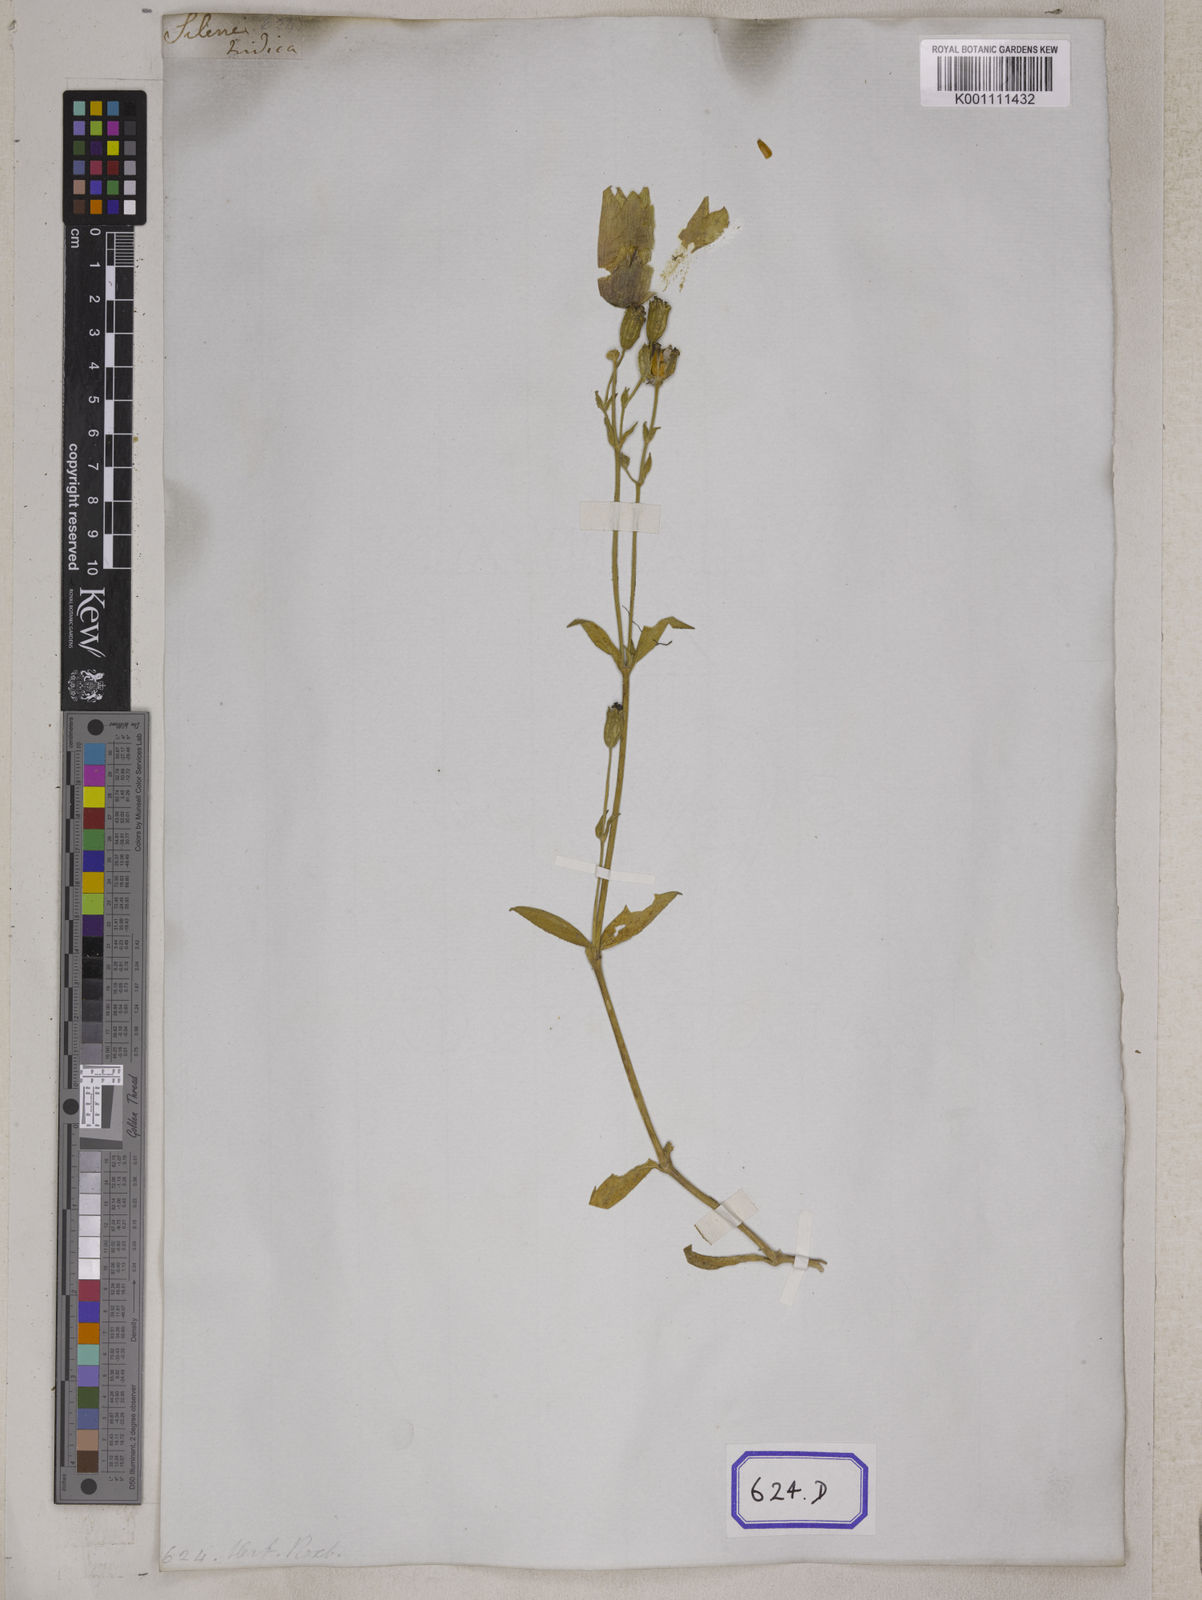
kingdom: Plantae
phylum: Tracheophyta
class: Magnoliopsida
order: Caryophyllales
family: Caryophyllaceae
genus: Silene
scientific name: Silene
